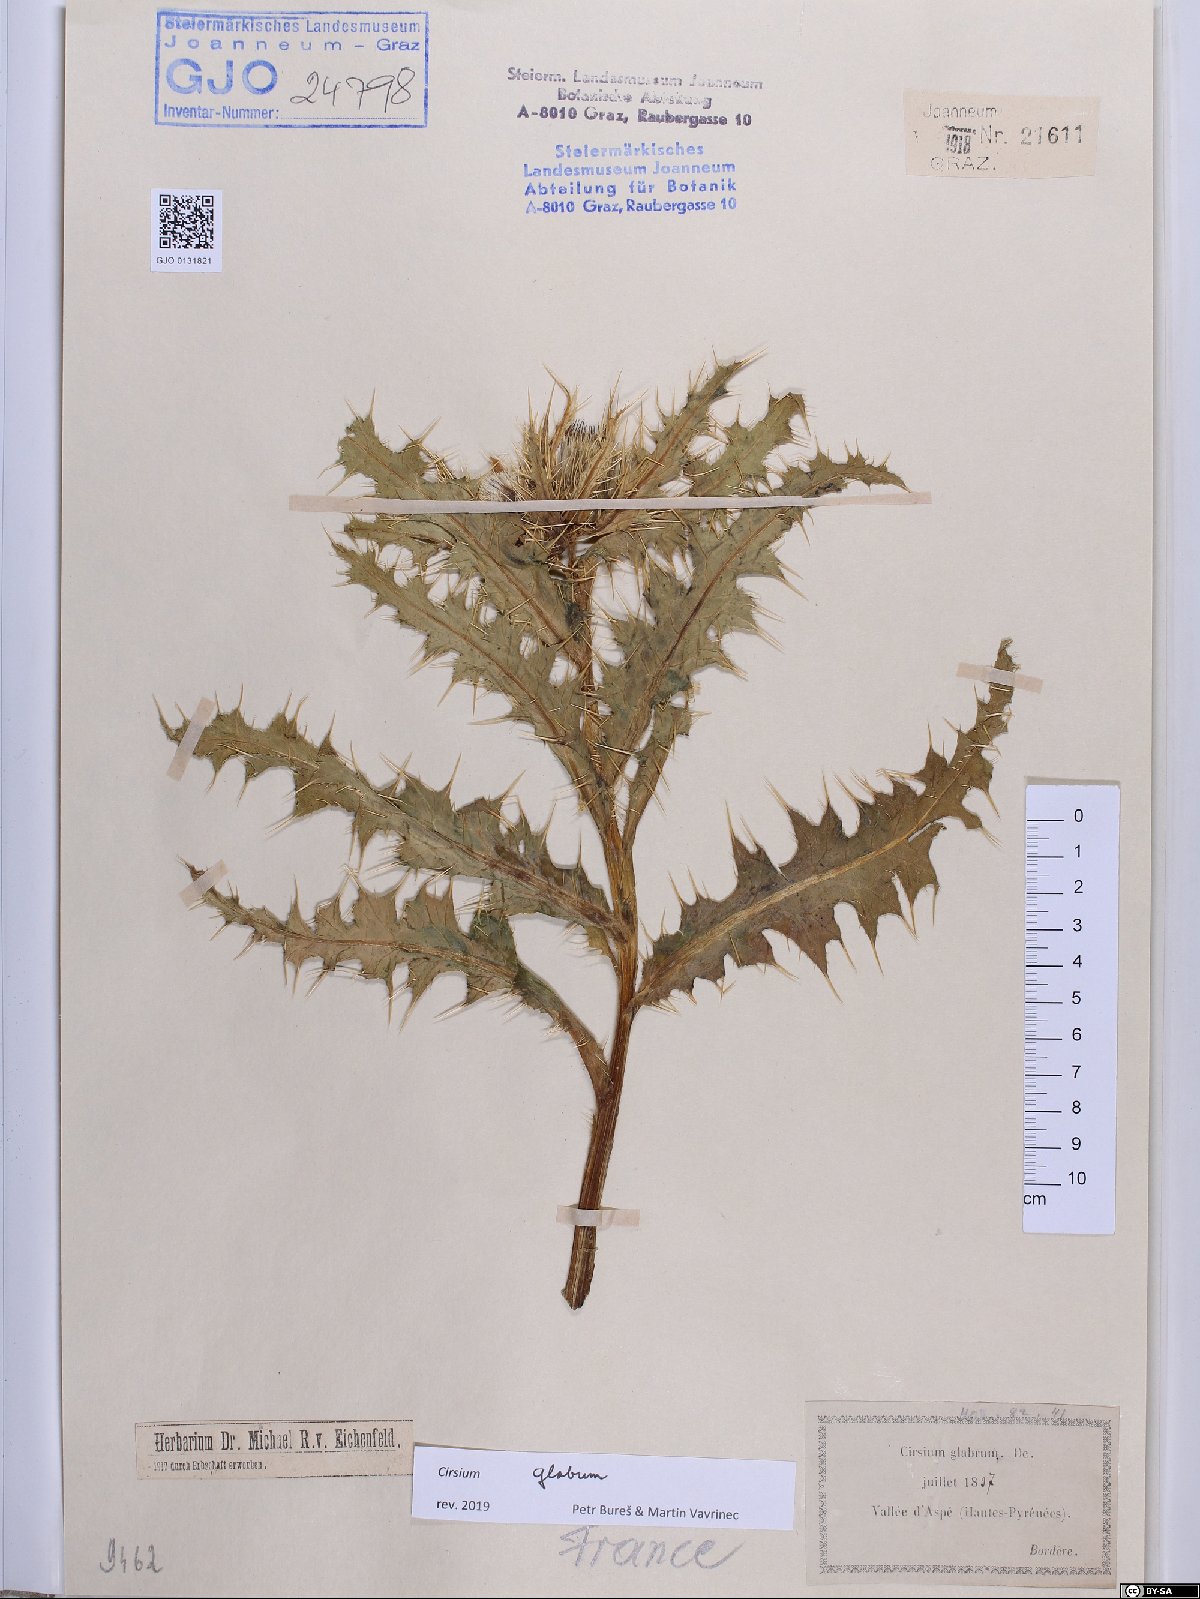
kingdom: Plantae
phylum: Tracheophyta
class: Magnoliopsida
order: Asterales
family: Asteraceae
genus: Cirsium
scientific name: Cirsium glabrum
